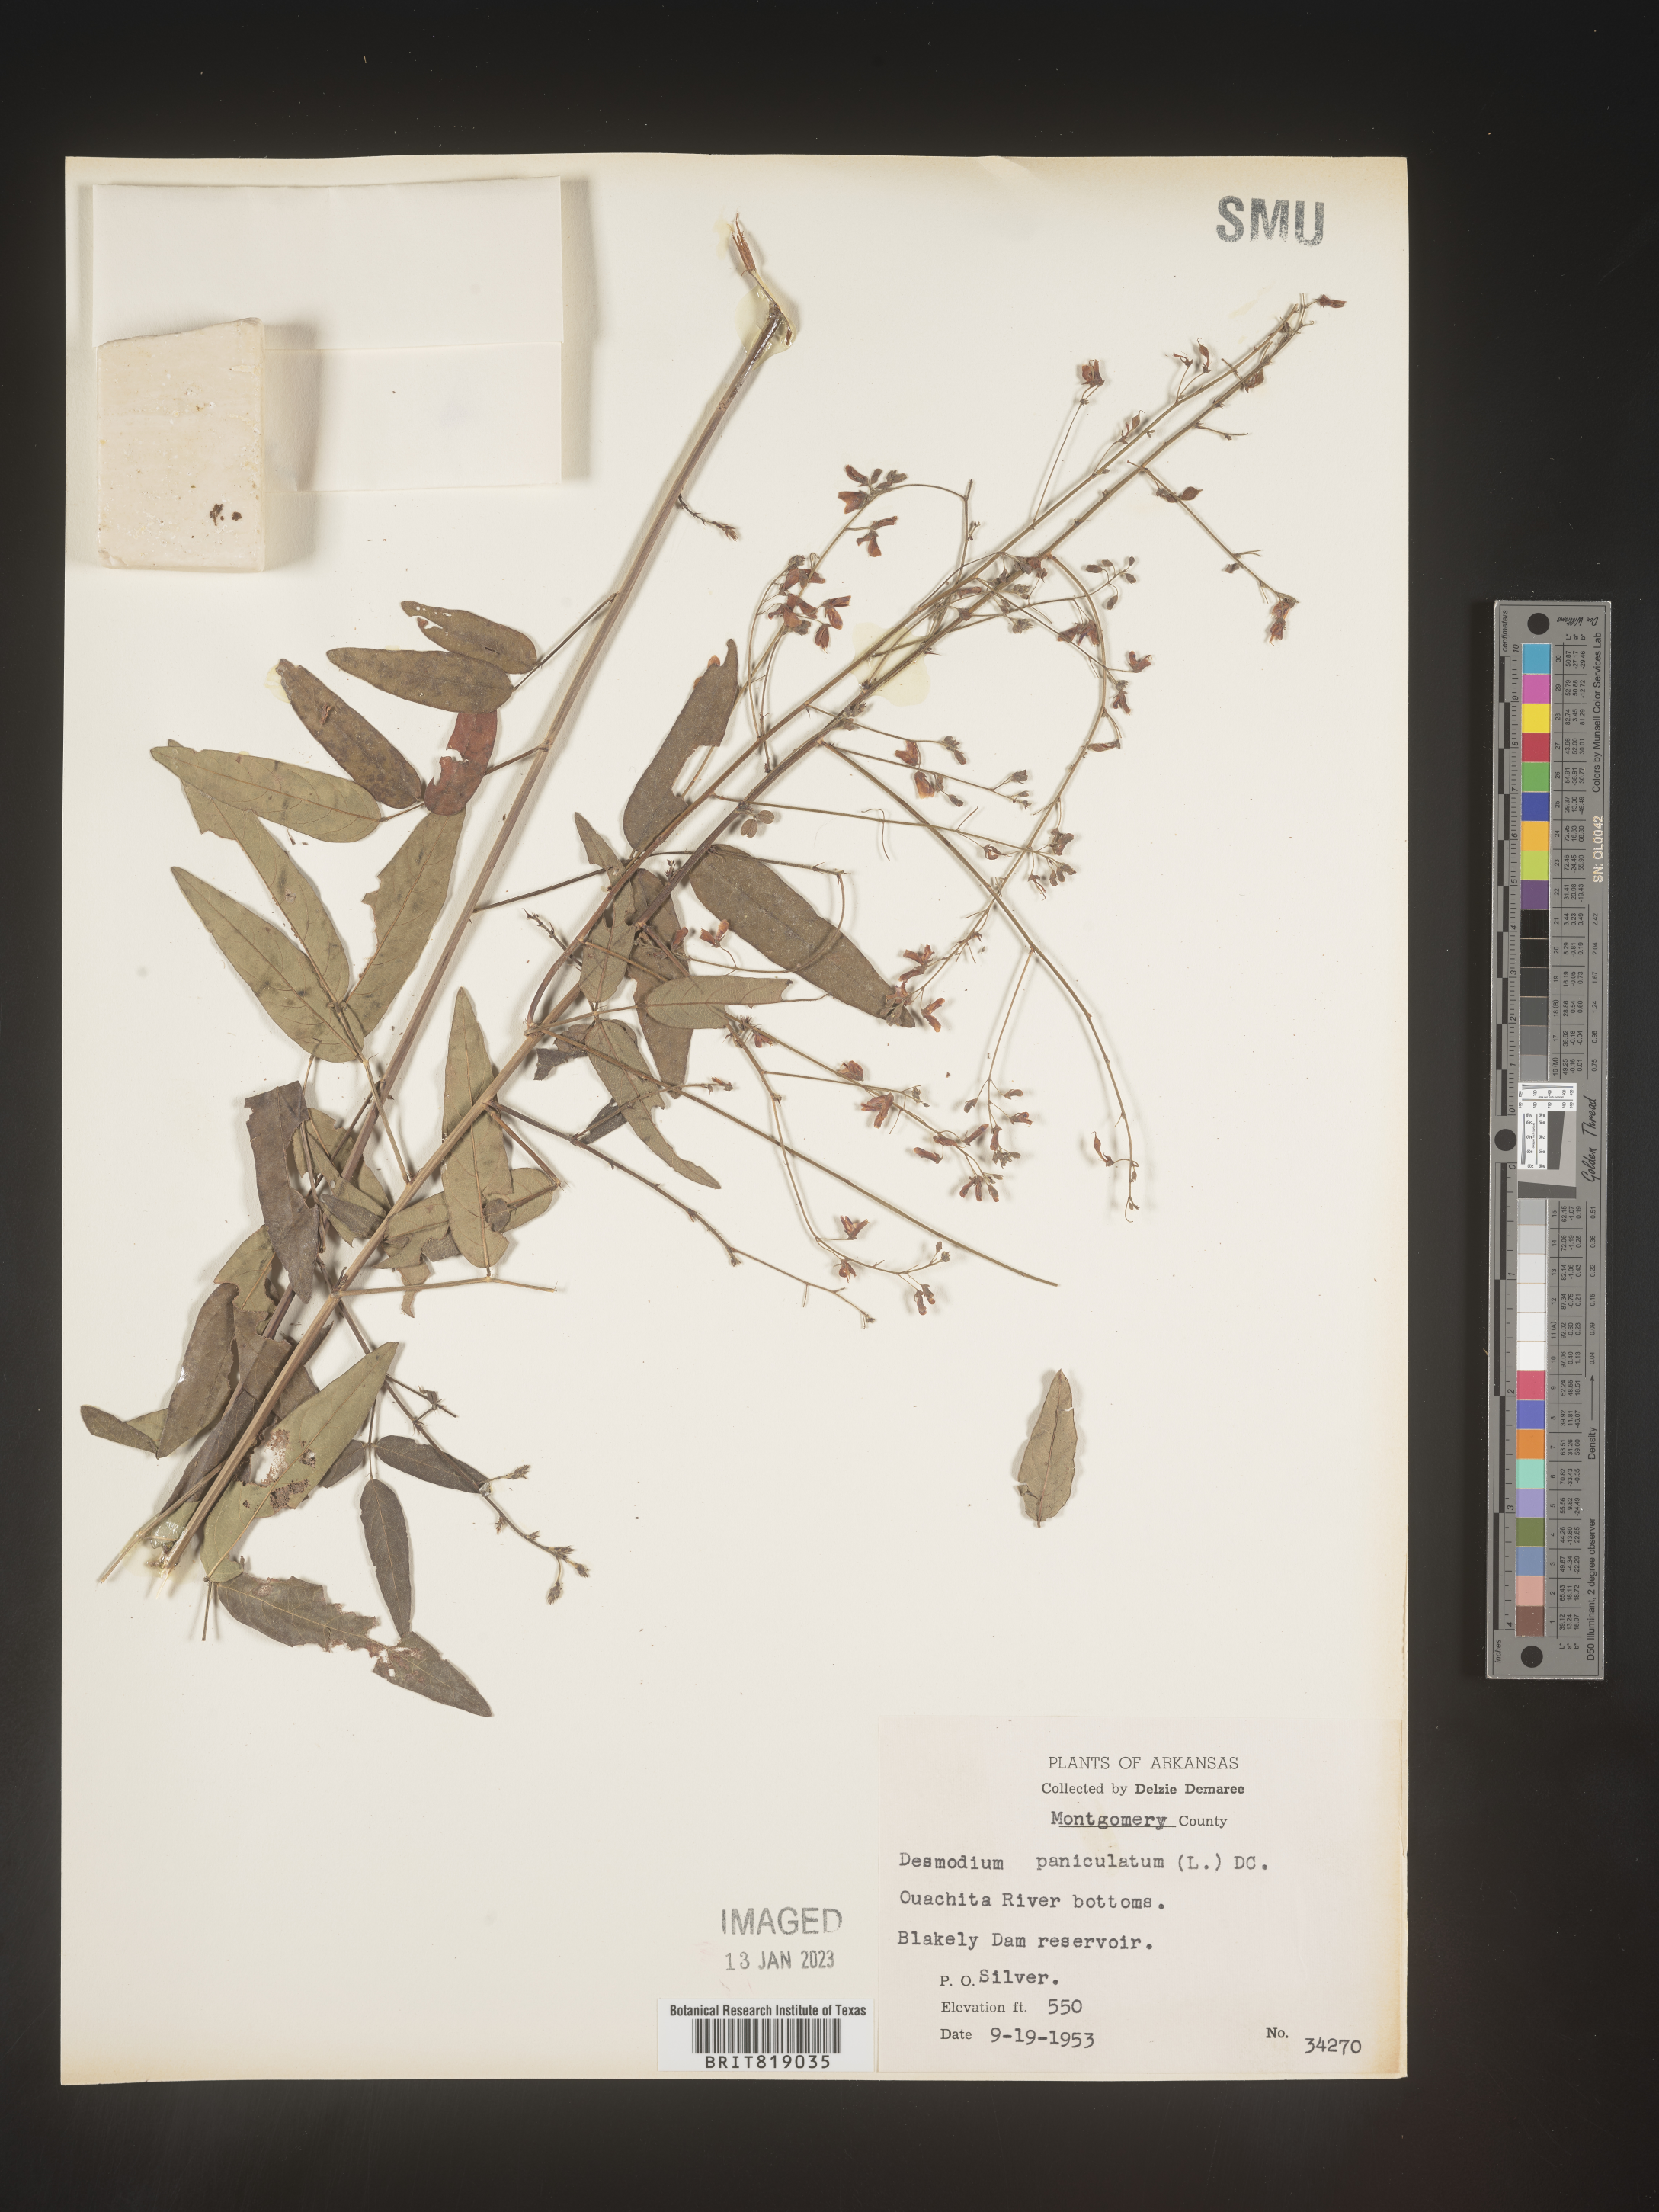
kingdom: Plantae
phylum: Tracheophyta
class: Magnoliopsida
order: Fabales
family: Fabaceae
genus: Desmodium
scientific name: Desmodium paniculatum
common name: Panicled tick-clover
